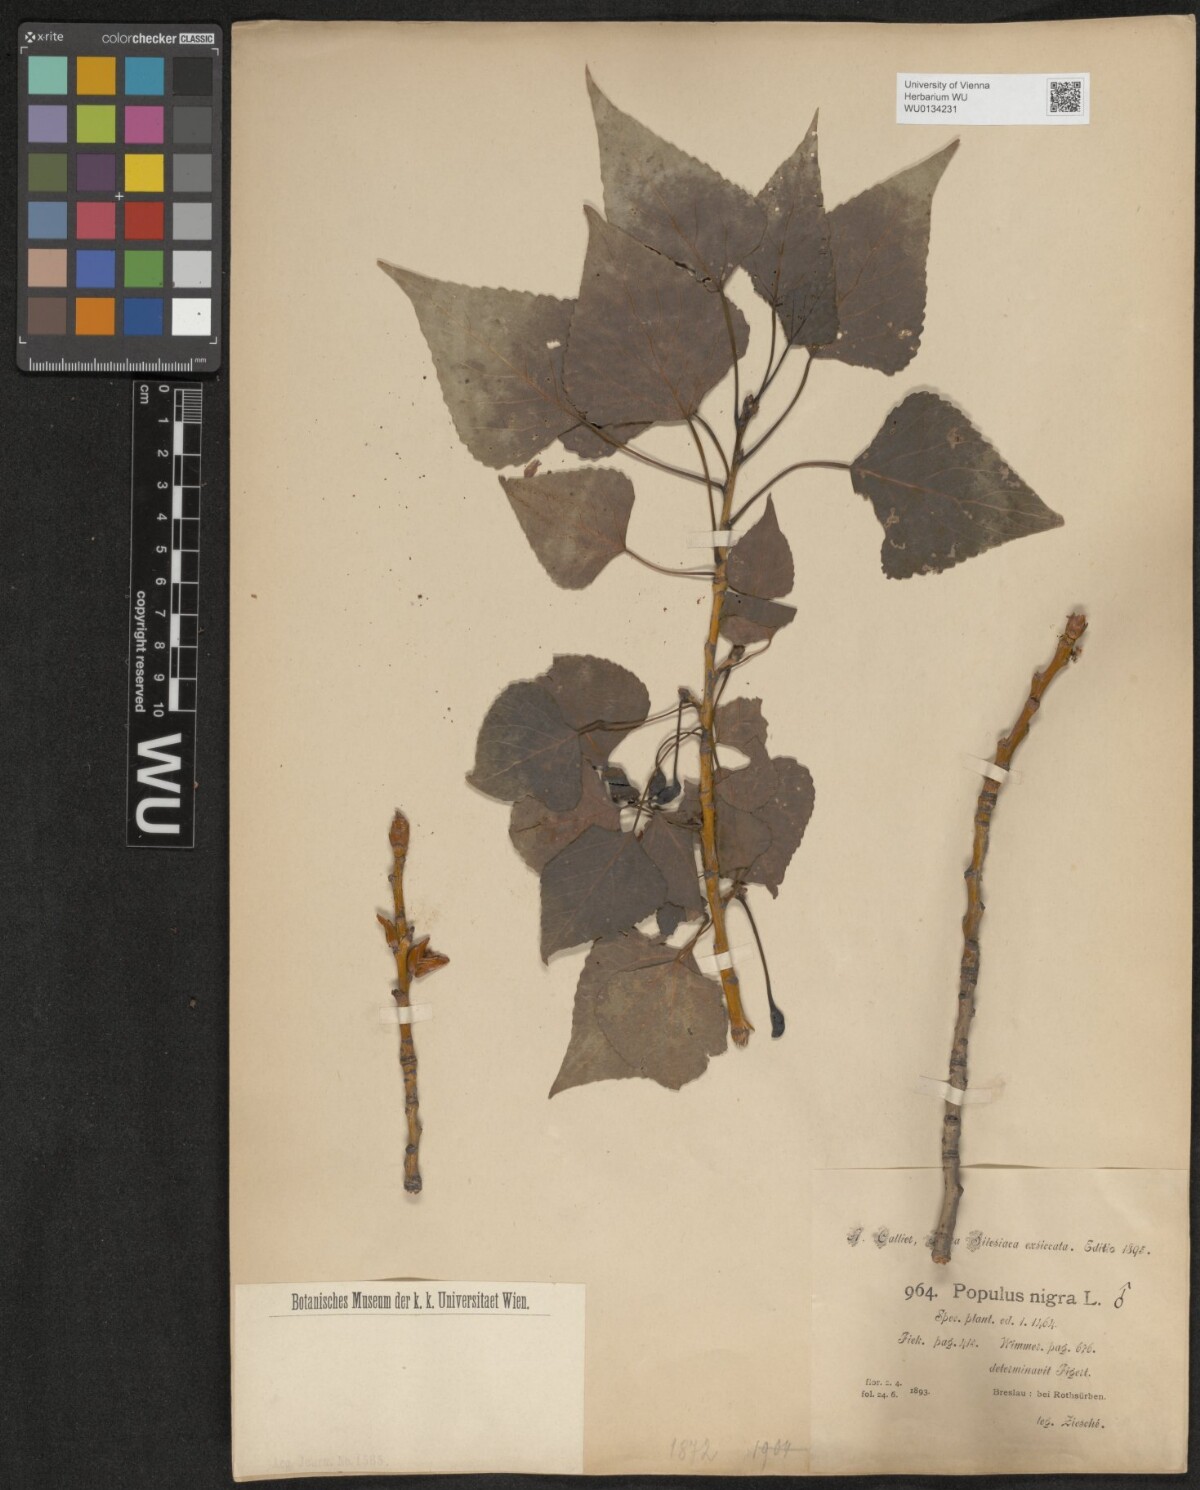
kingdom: Plantae
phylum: Tracheophyta
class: Magnoliopsida
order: Malpighiales
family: Salicaceae
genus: Populus
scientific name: Populus nigra
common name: Black poplar
